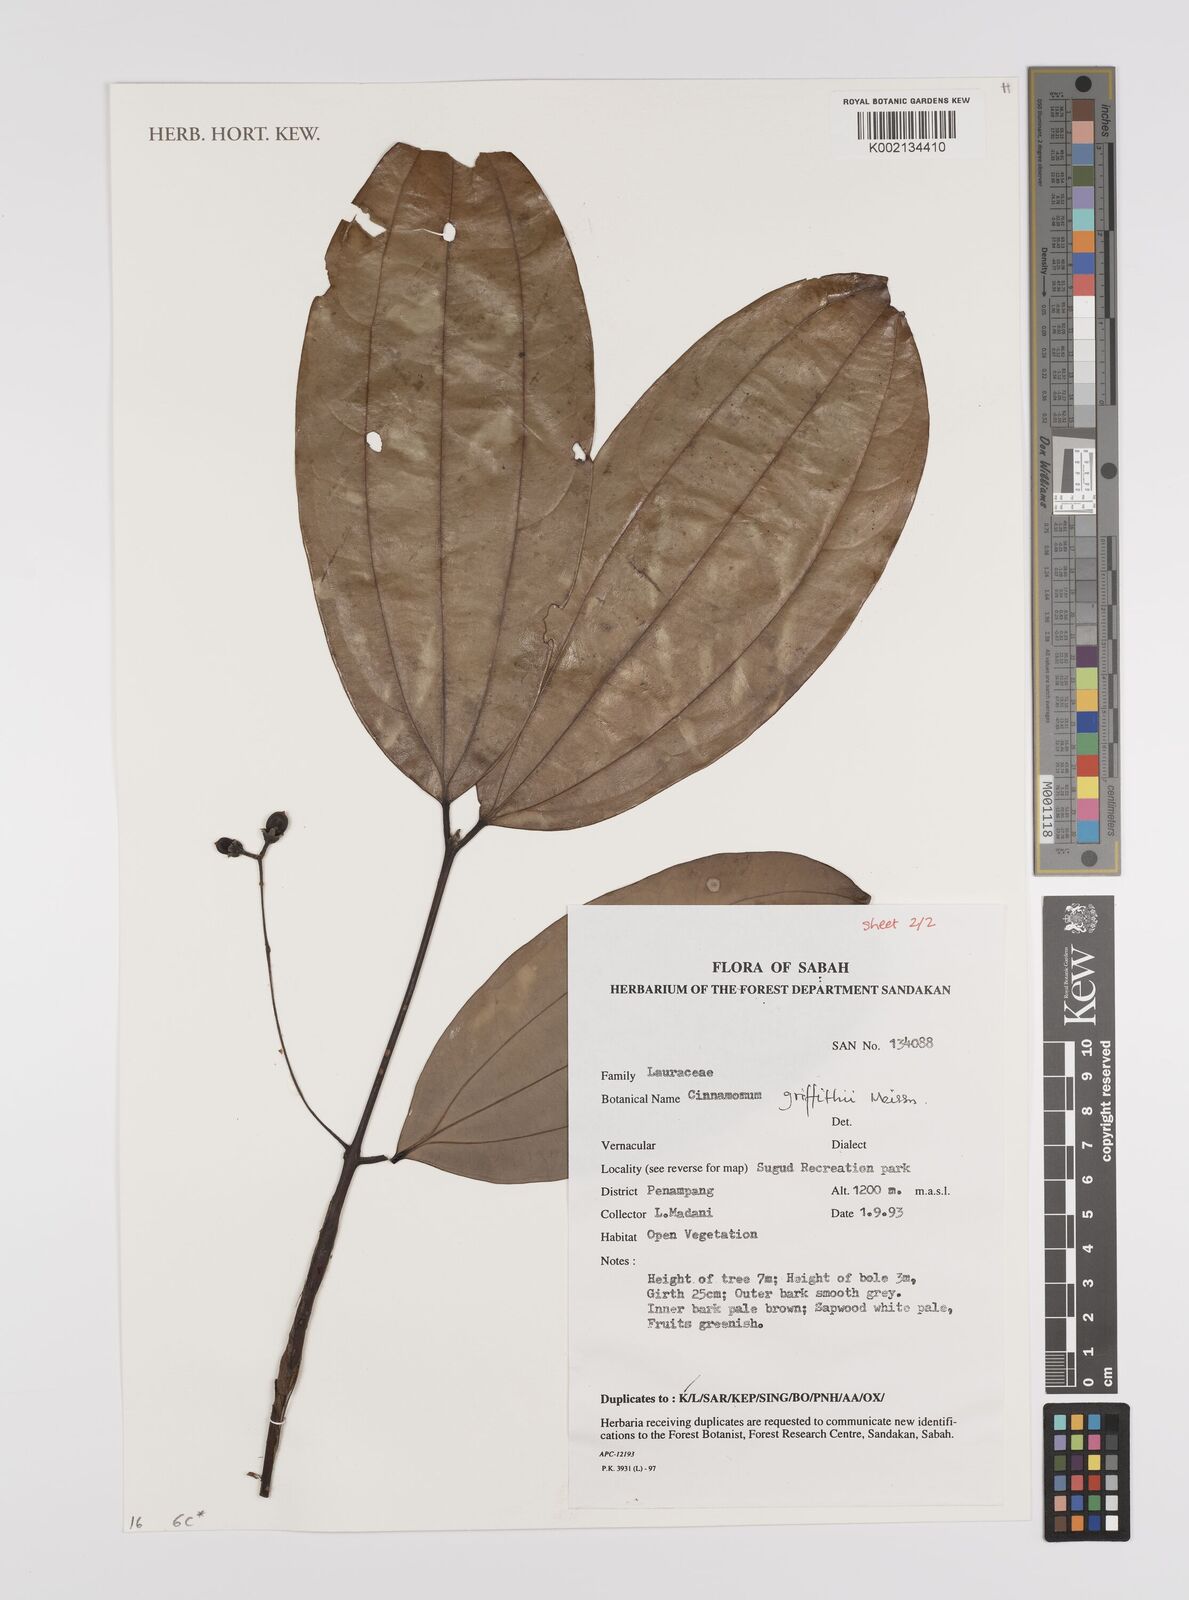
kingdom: Plantae
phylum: Tracheophyta
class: Magnoliopsida
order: Laurales
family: Lauraceae
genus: Cinnamomum
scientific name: Cinnamomum iners
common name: Wild cinnamon
